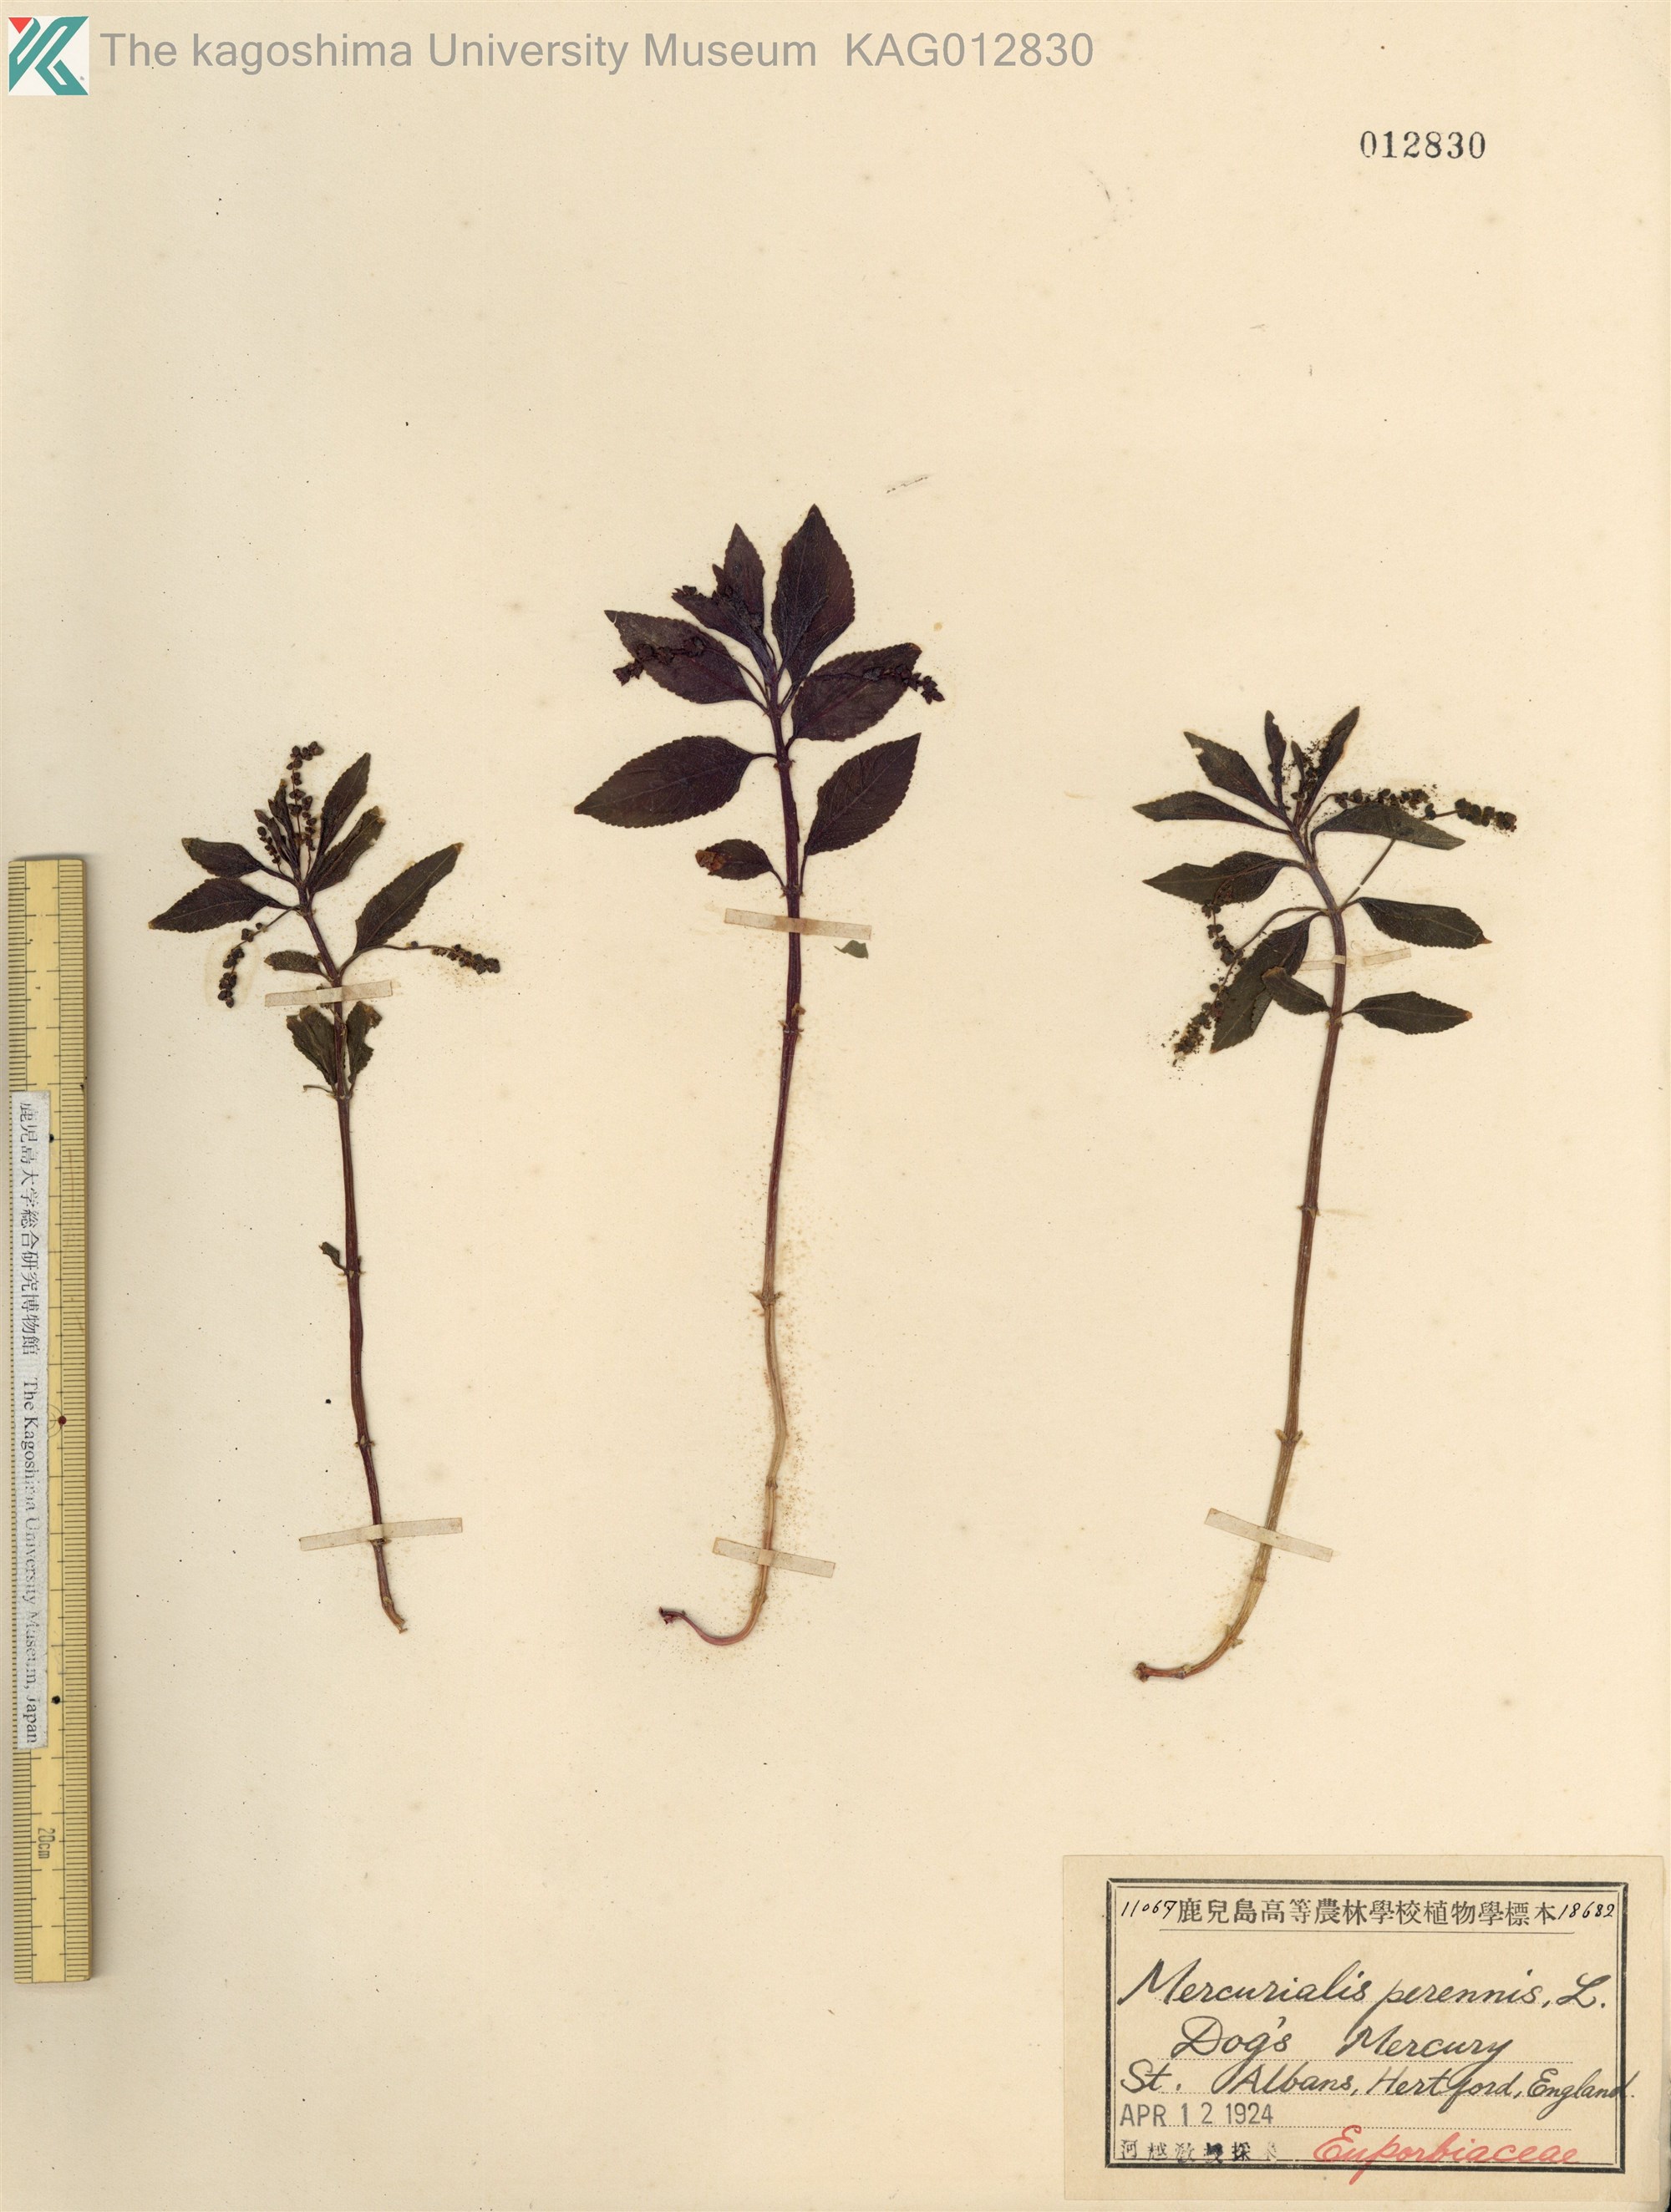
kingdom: Plantae
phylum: Tracheophyta
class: Magnoliopsida
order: Malpighiales
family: Euphorbiaceae
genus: Mercurialis
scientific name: Mercurialis perennis
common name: Dog mercury
